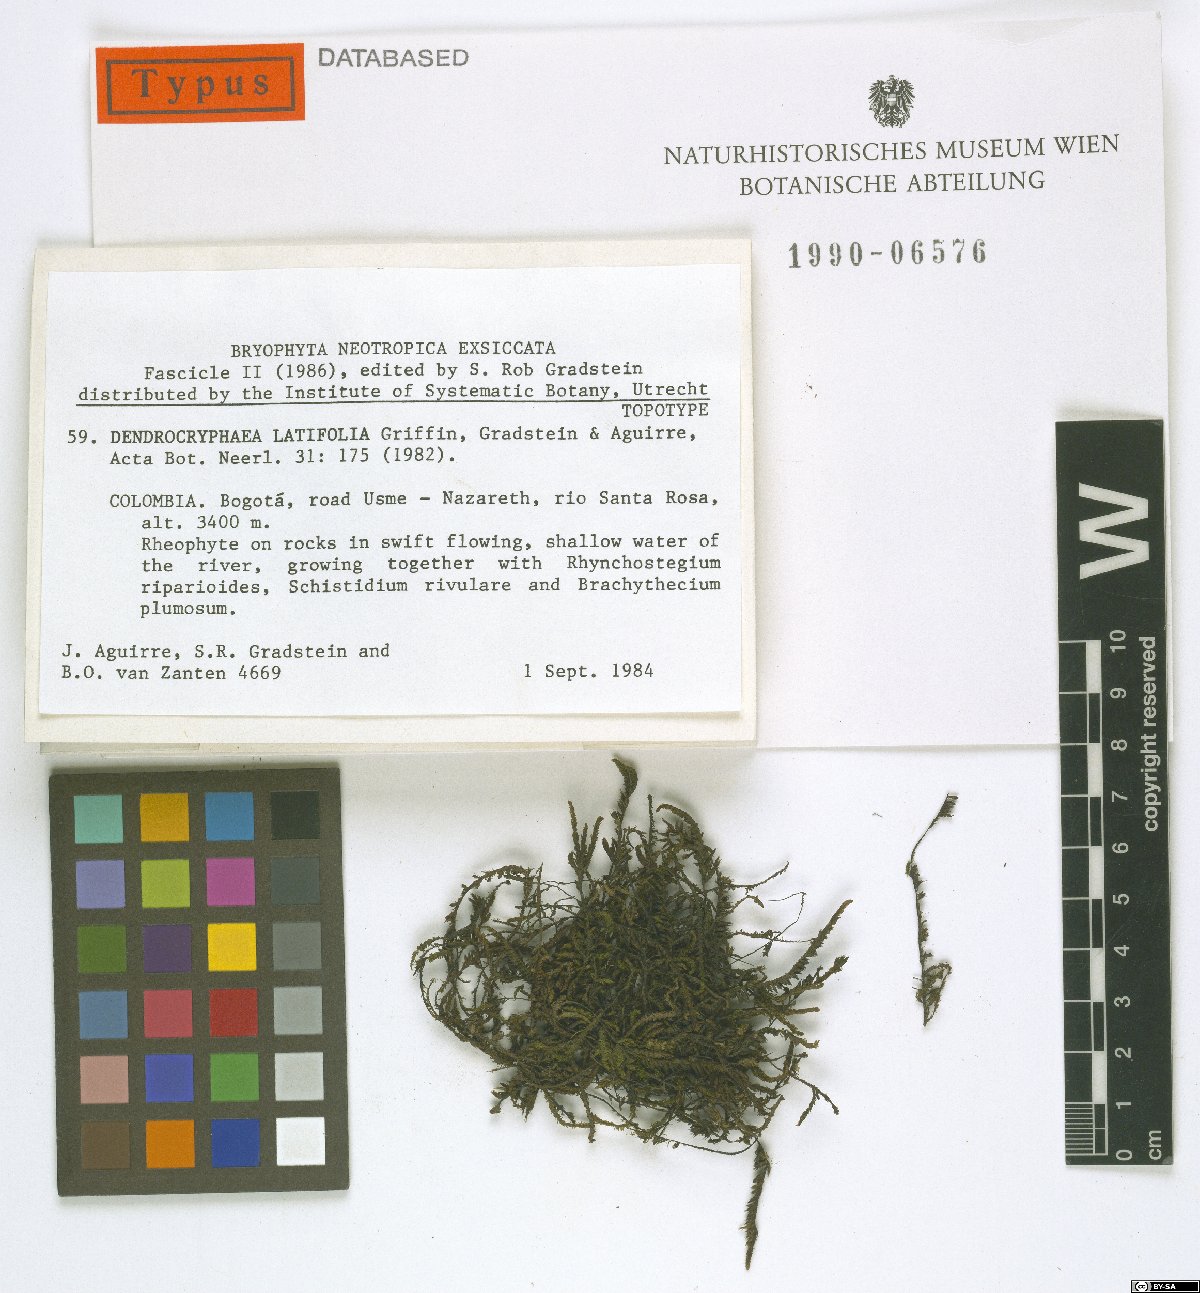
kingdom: Plantae
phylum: Bryophyta
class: Bryopsida
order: Hypnales
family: Cryphaeaceae
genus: Dendrocryphaea
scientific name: Dendrocryphaea latifolia
